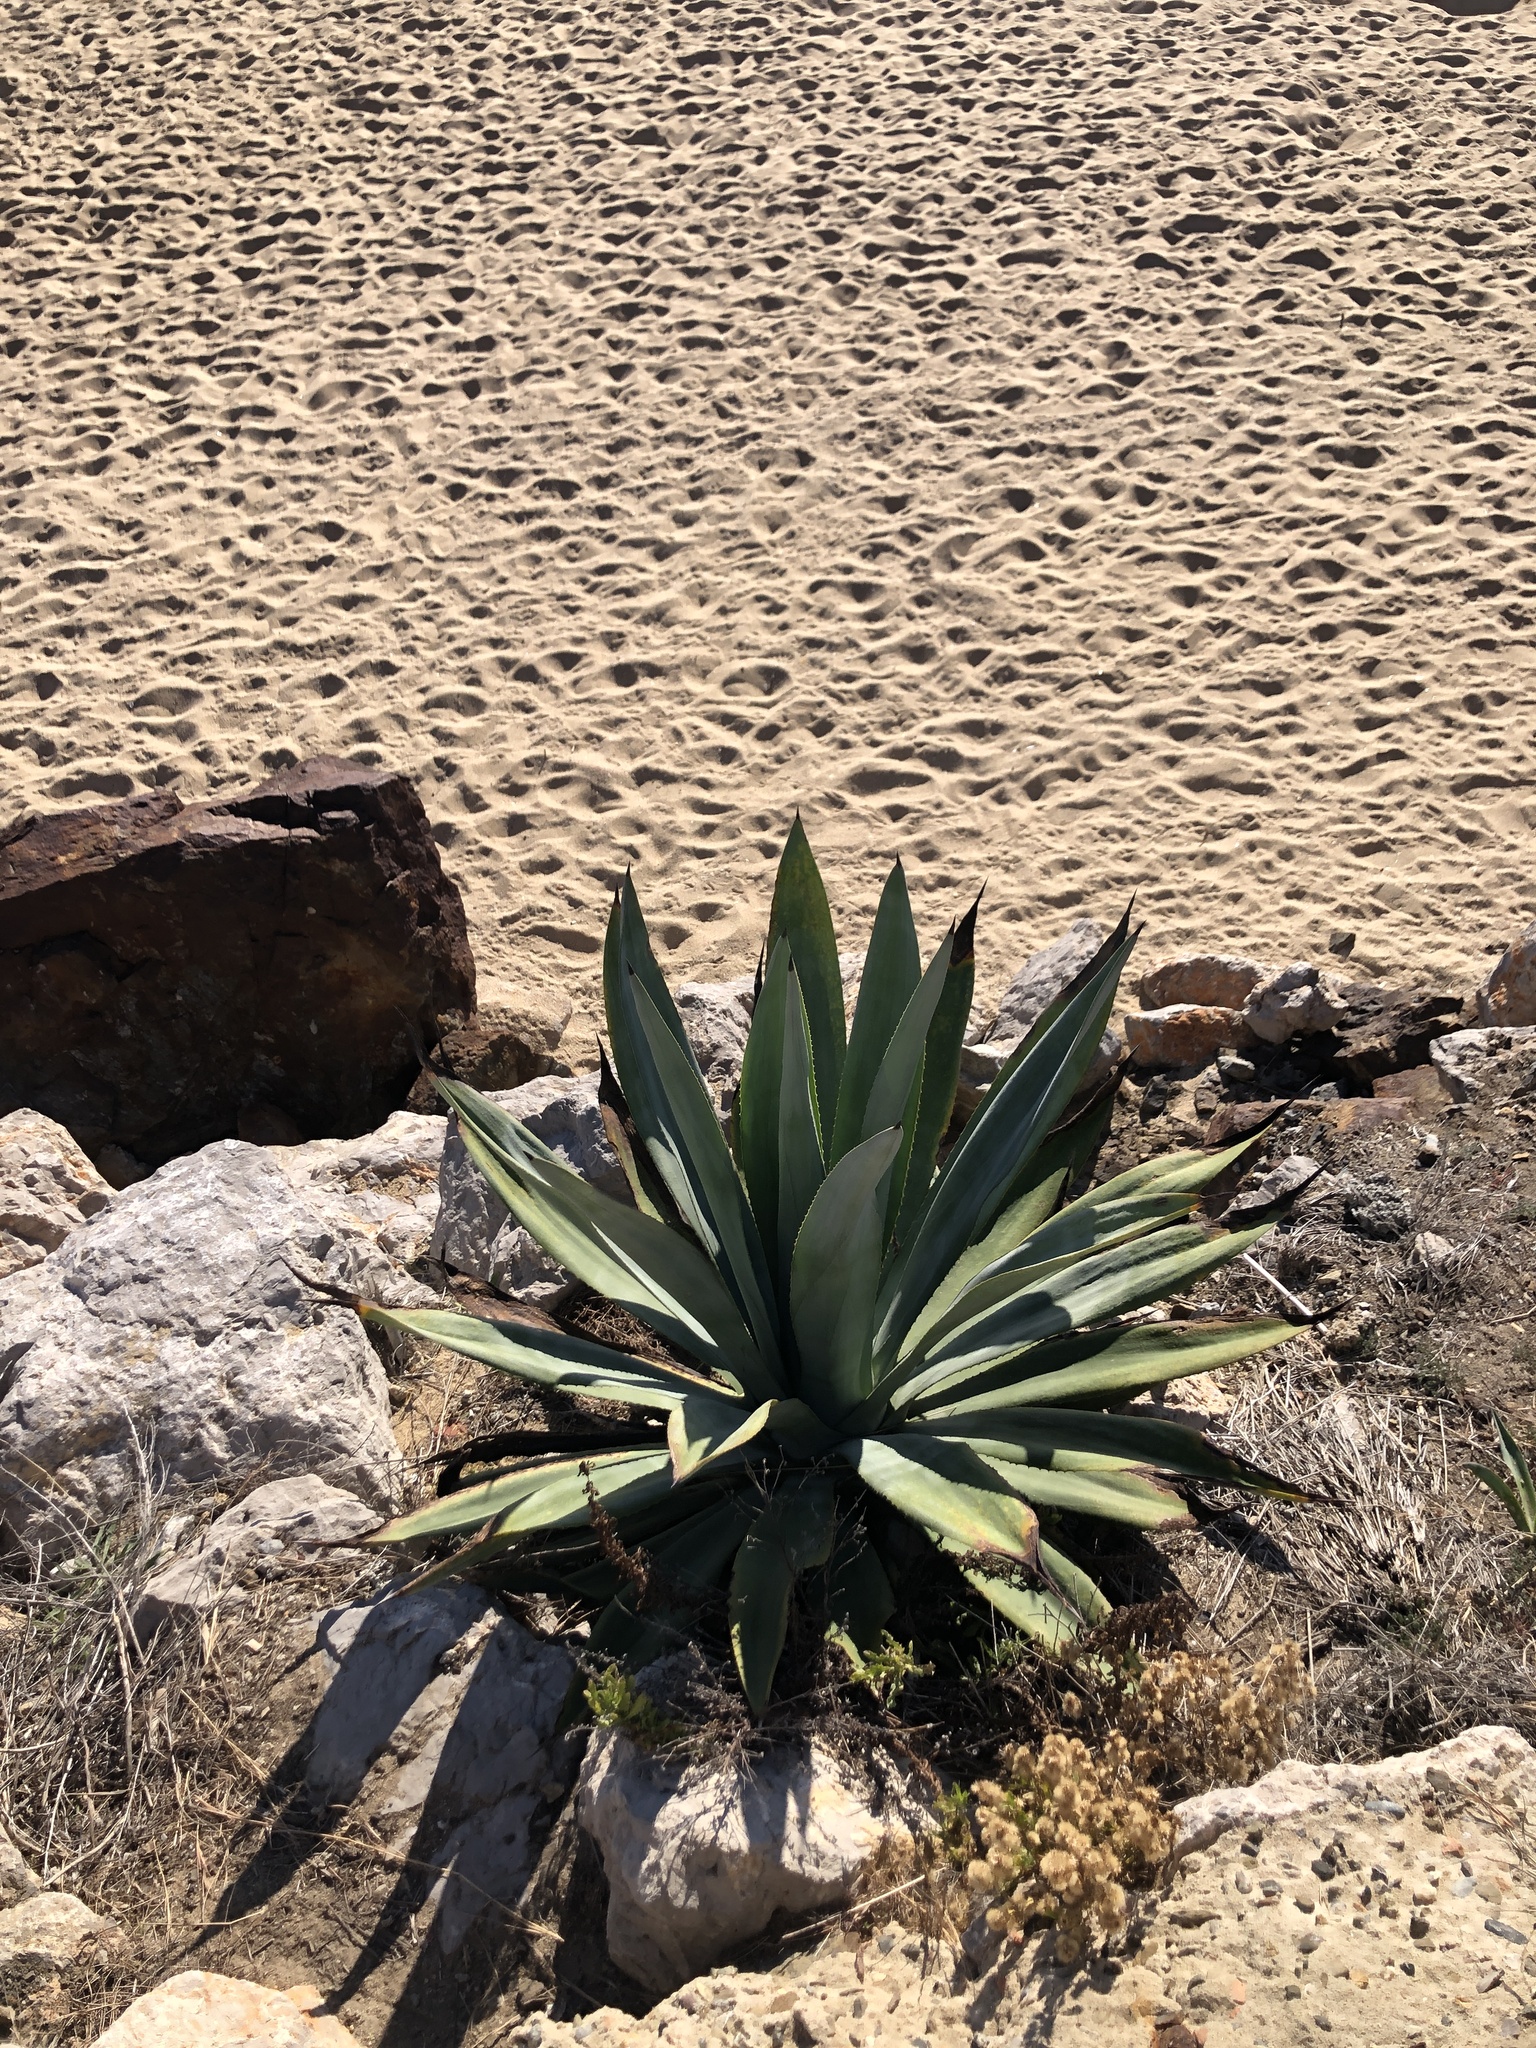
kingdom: Plantae
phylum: Tracheophyta
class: Liliopsida
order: Asparagales
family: Asparagaceae
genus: Agave
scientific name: Agave americana
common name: Centuryplant
